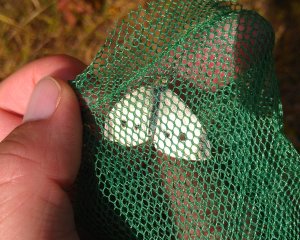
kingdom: Animalia
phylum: Arthropoda
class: Insecta
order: Lepidoptera
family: Pieridae
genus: Pieris
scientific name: Pieris rapae
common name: Cabbage White
